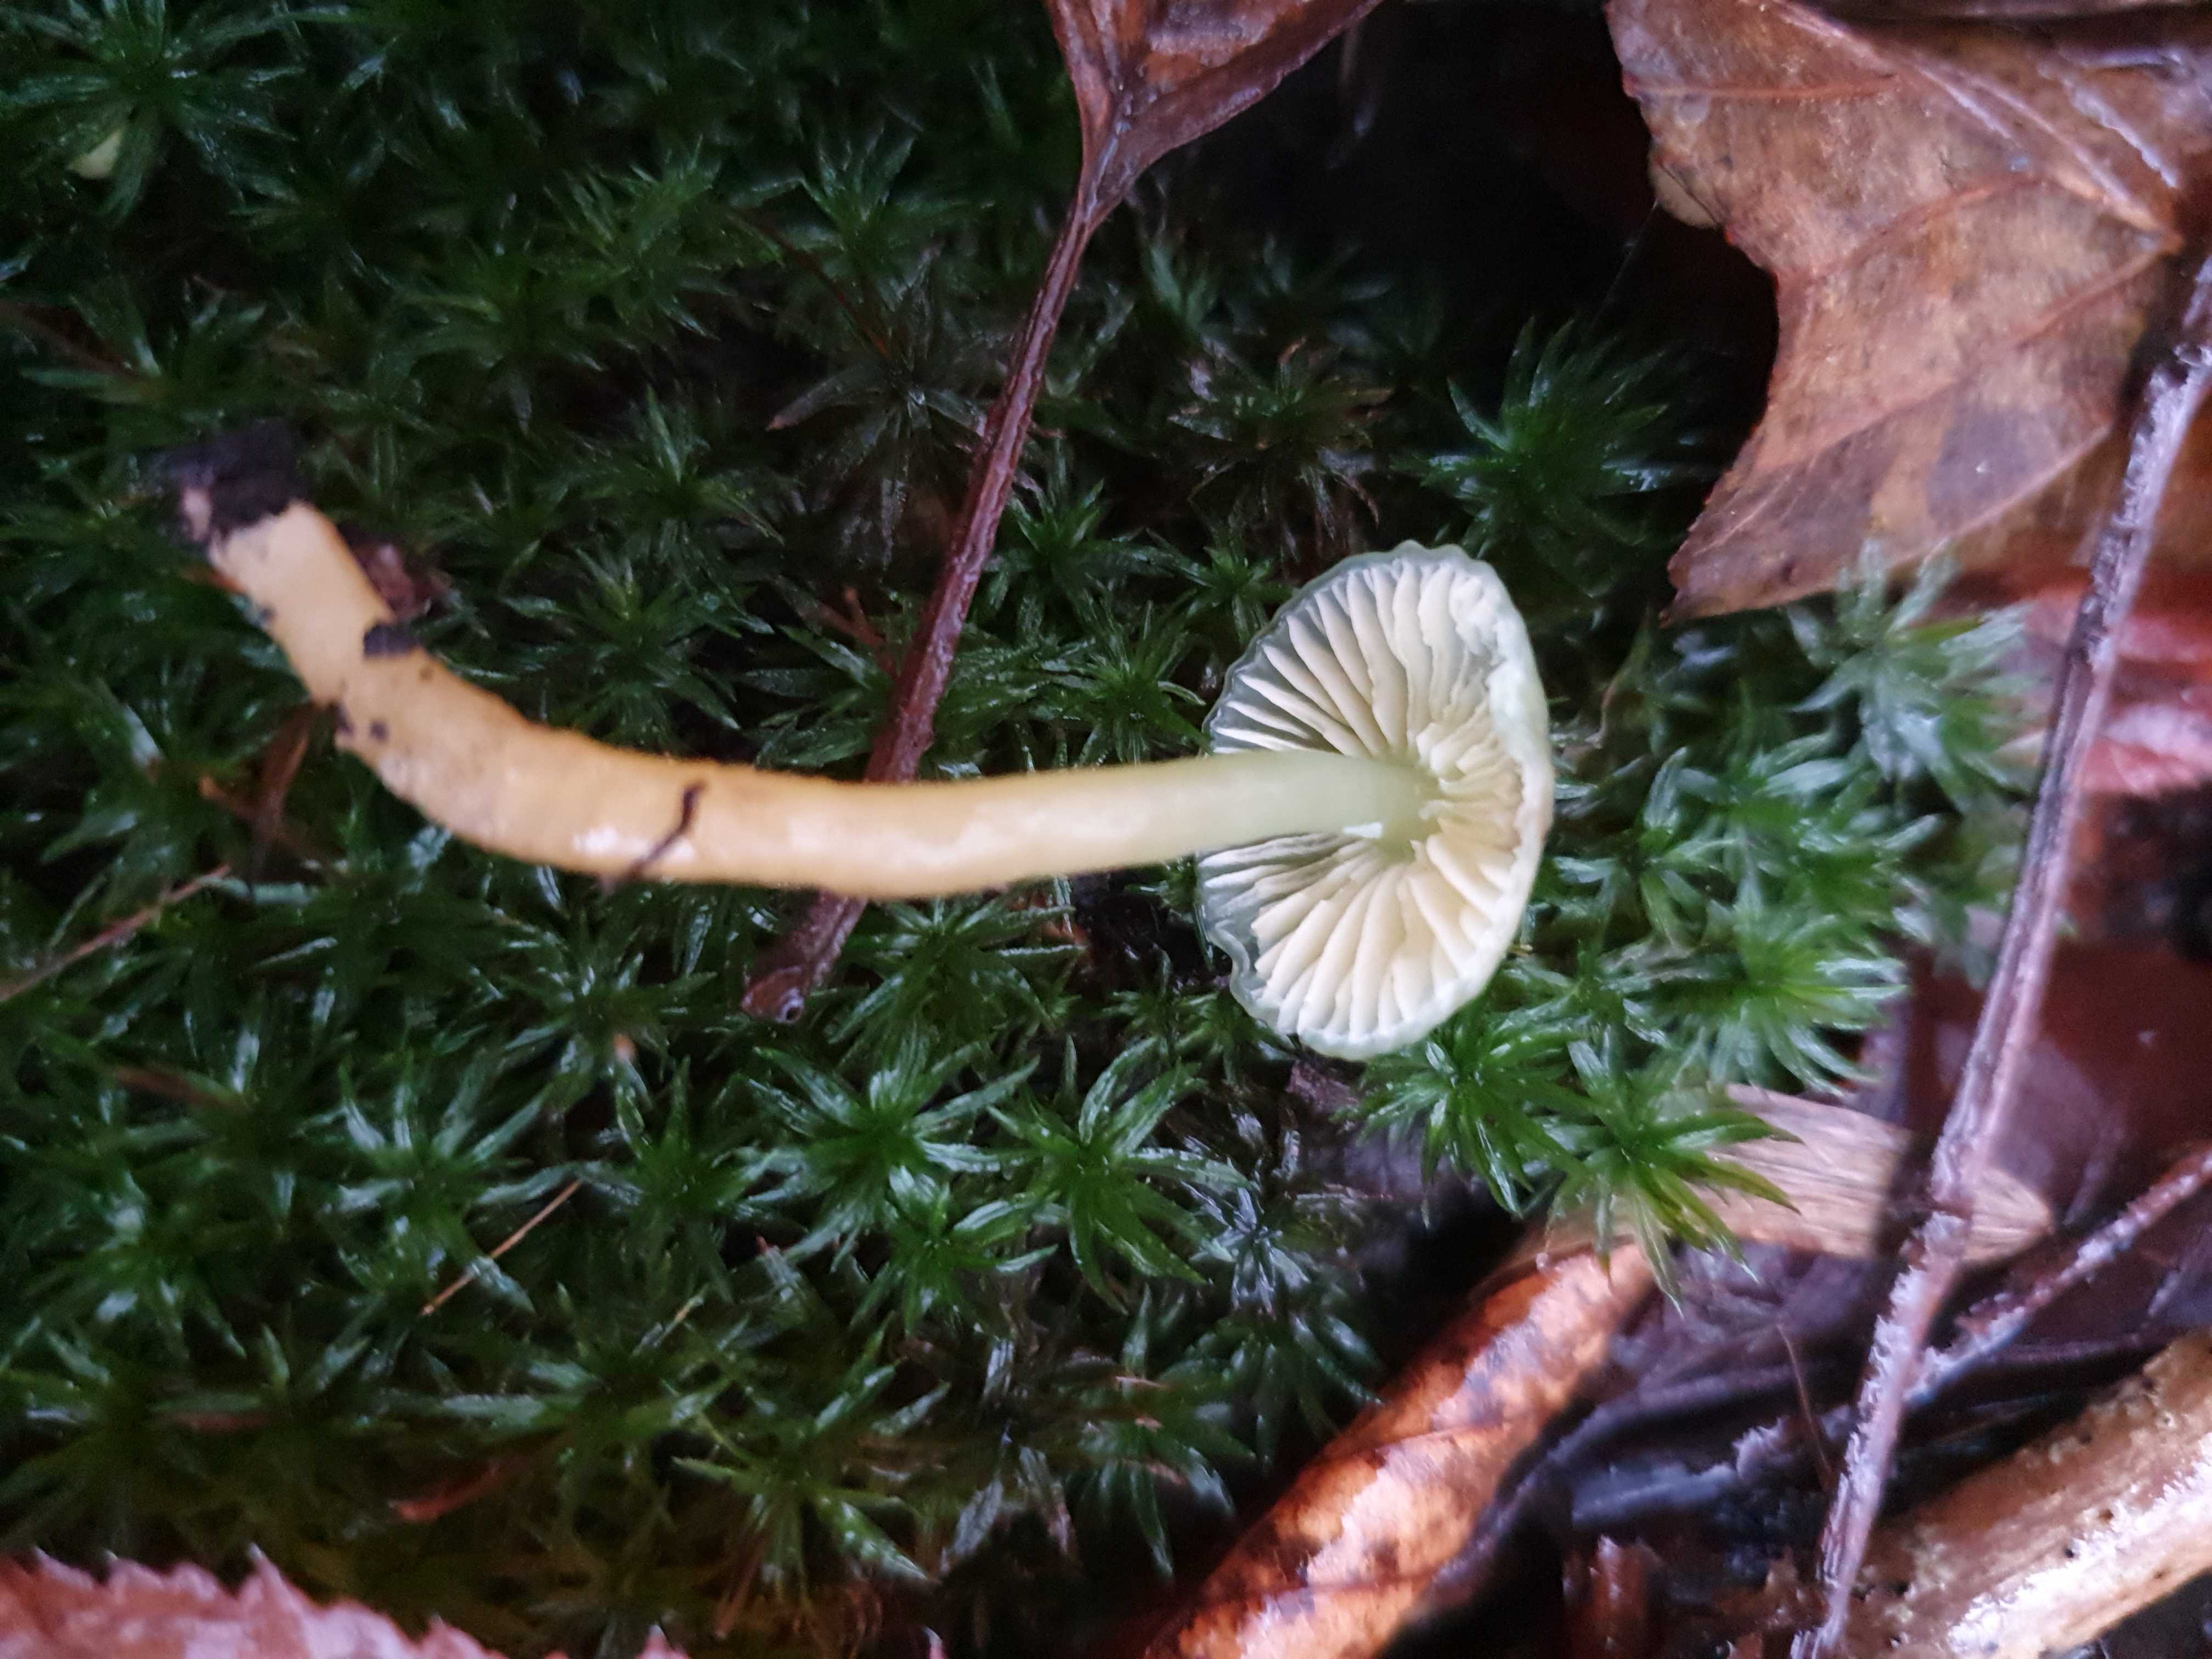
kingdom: Fungi
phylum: Basidiomycota
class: Agaricomycetes
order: Agaricales
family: Hygrophoraceae
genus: Gliophorus
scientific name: Gliophorus psittacinus
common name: papegøje-vokshat
